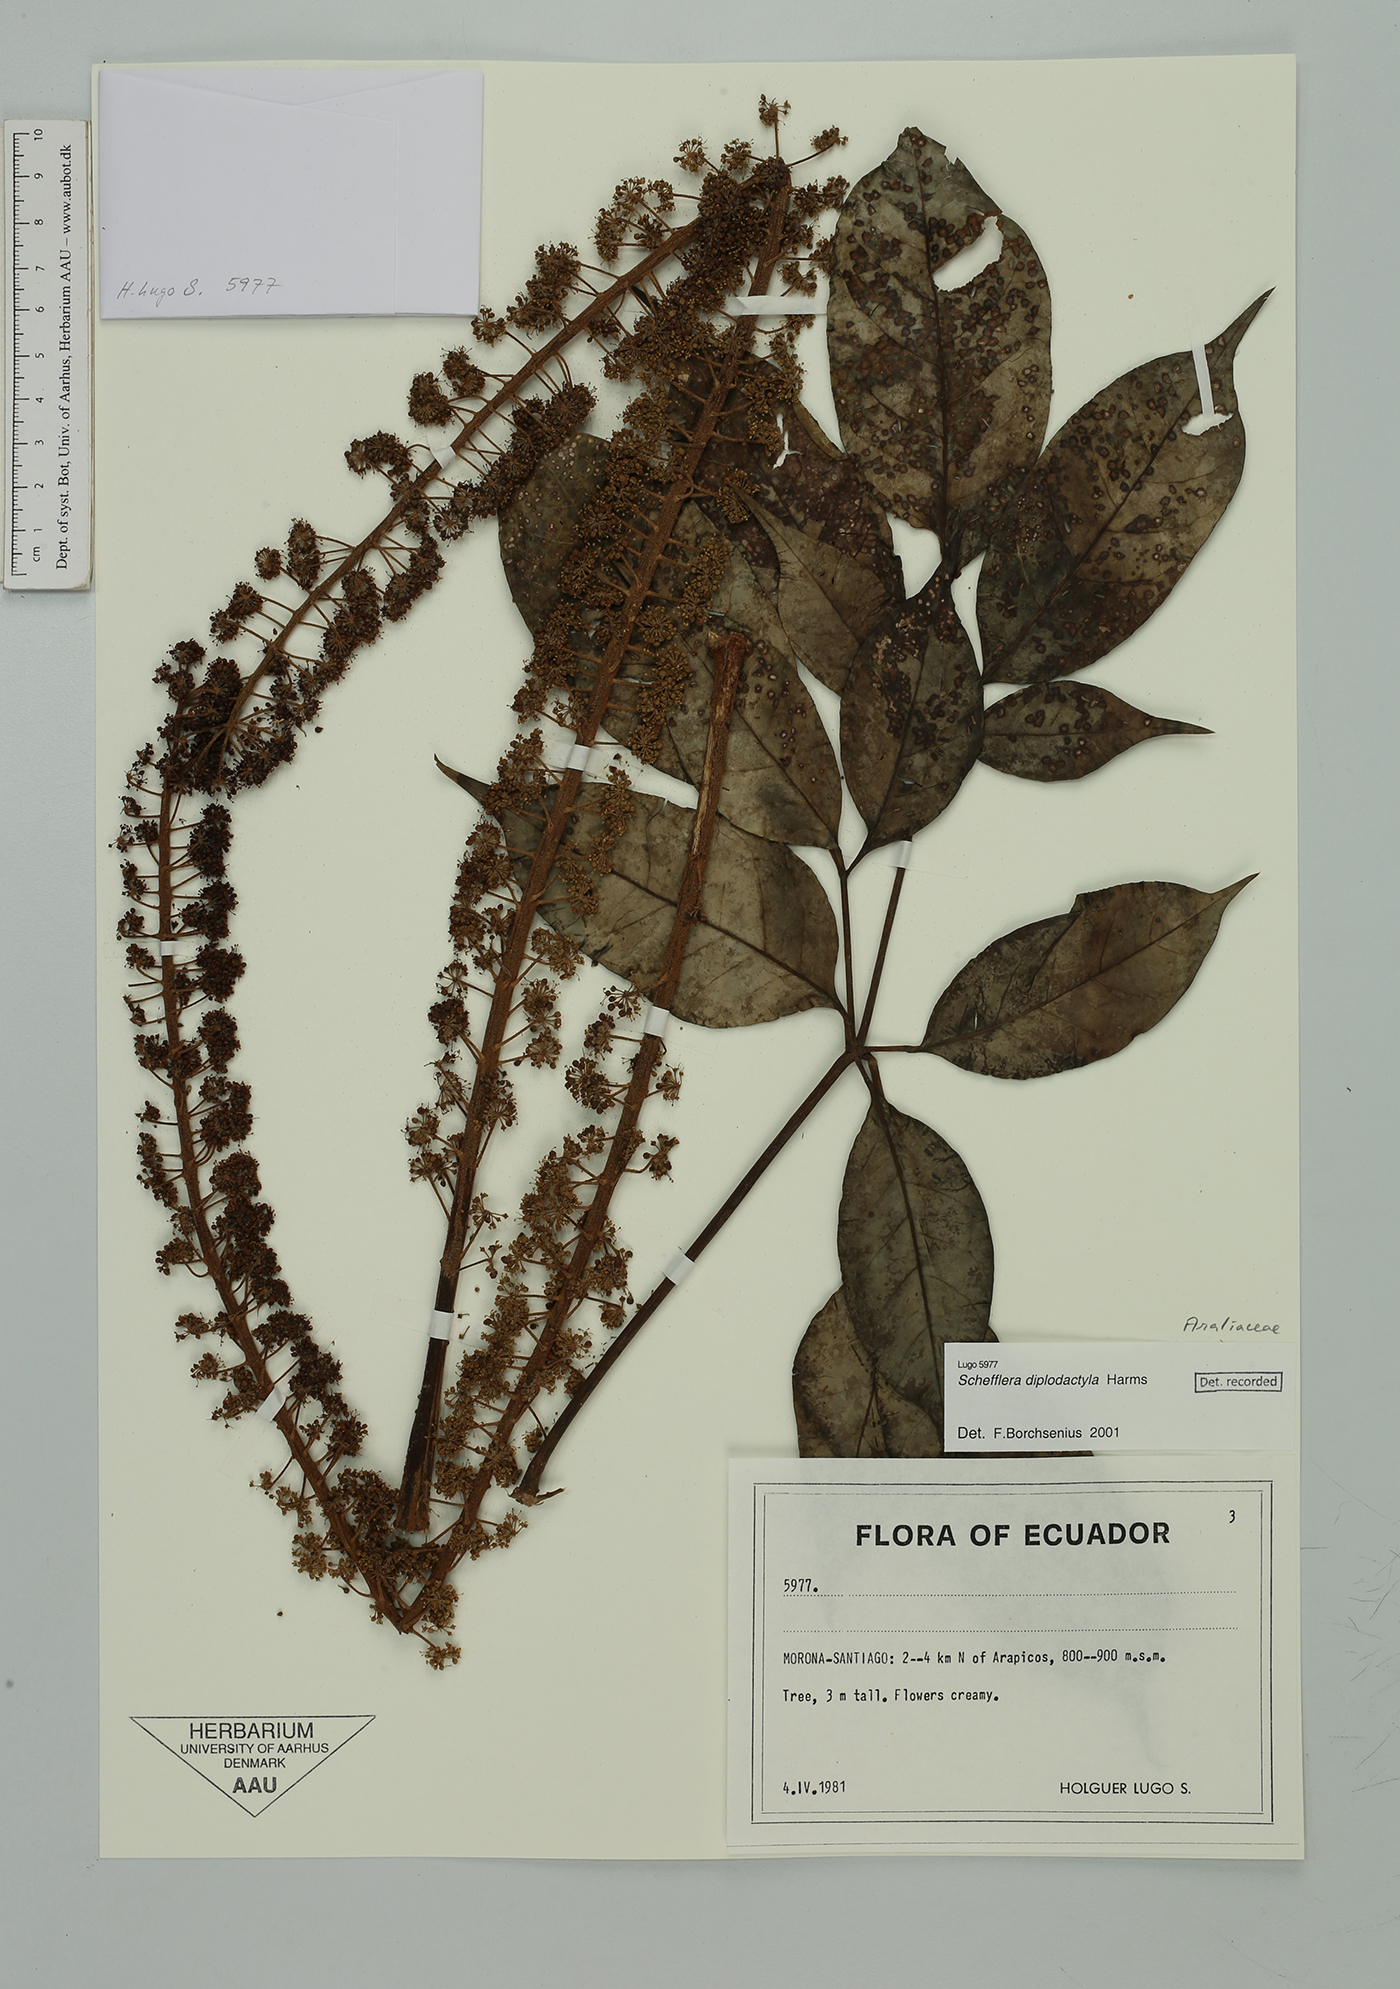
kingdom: Plantae
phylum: Tracheophyta
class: Magnoliopsida
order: Apiales
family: Araliaceae
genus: Sciodaphyllum
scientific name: Sciodaphyllum diplodactylum
